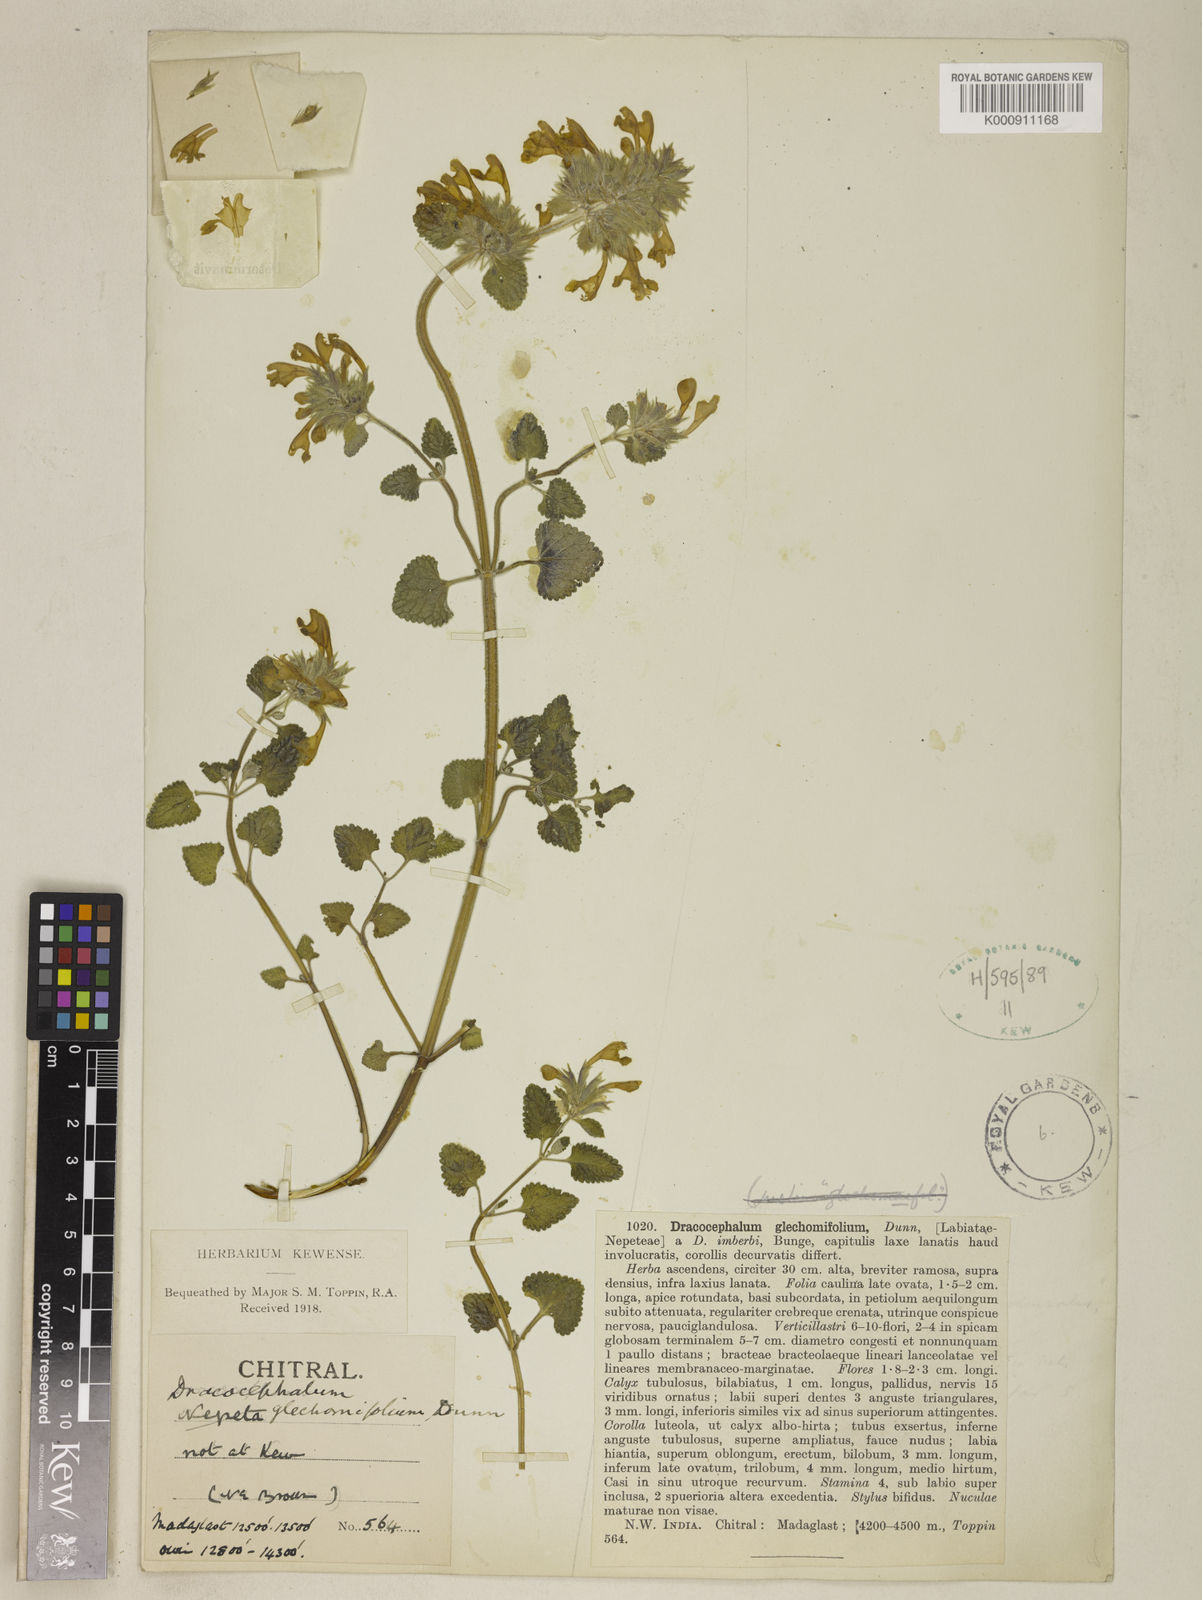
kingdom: Plantae
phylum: Tracheophyta
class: Magnoliopsida
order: Lamiales
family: Lamiaceae
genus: Nepeta
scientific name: Nepeta glechomifolia
